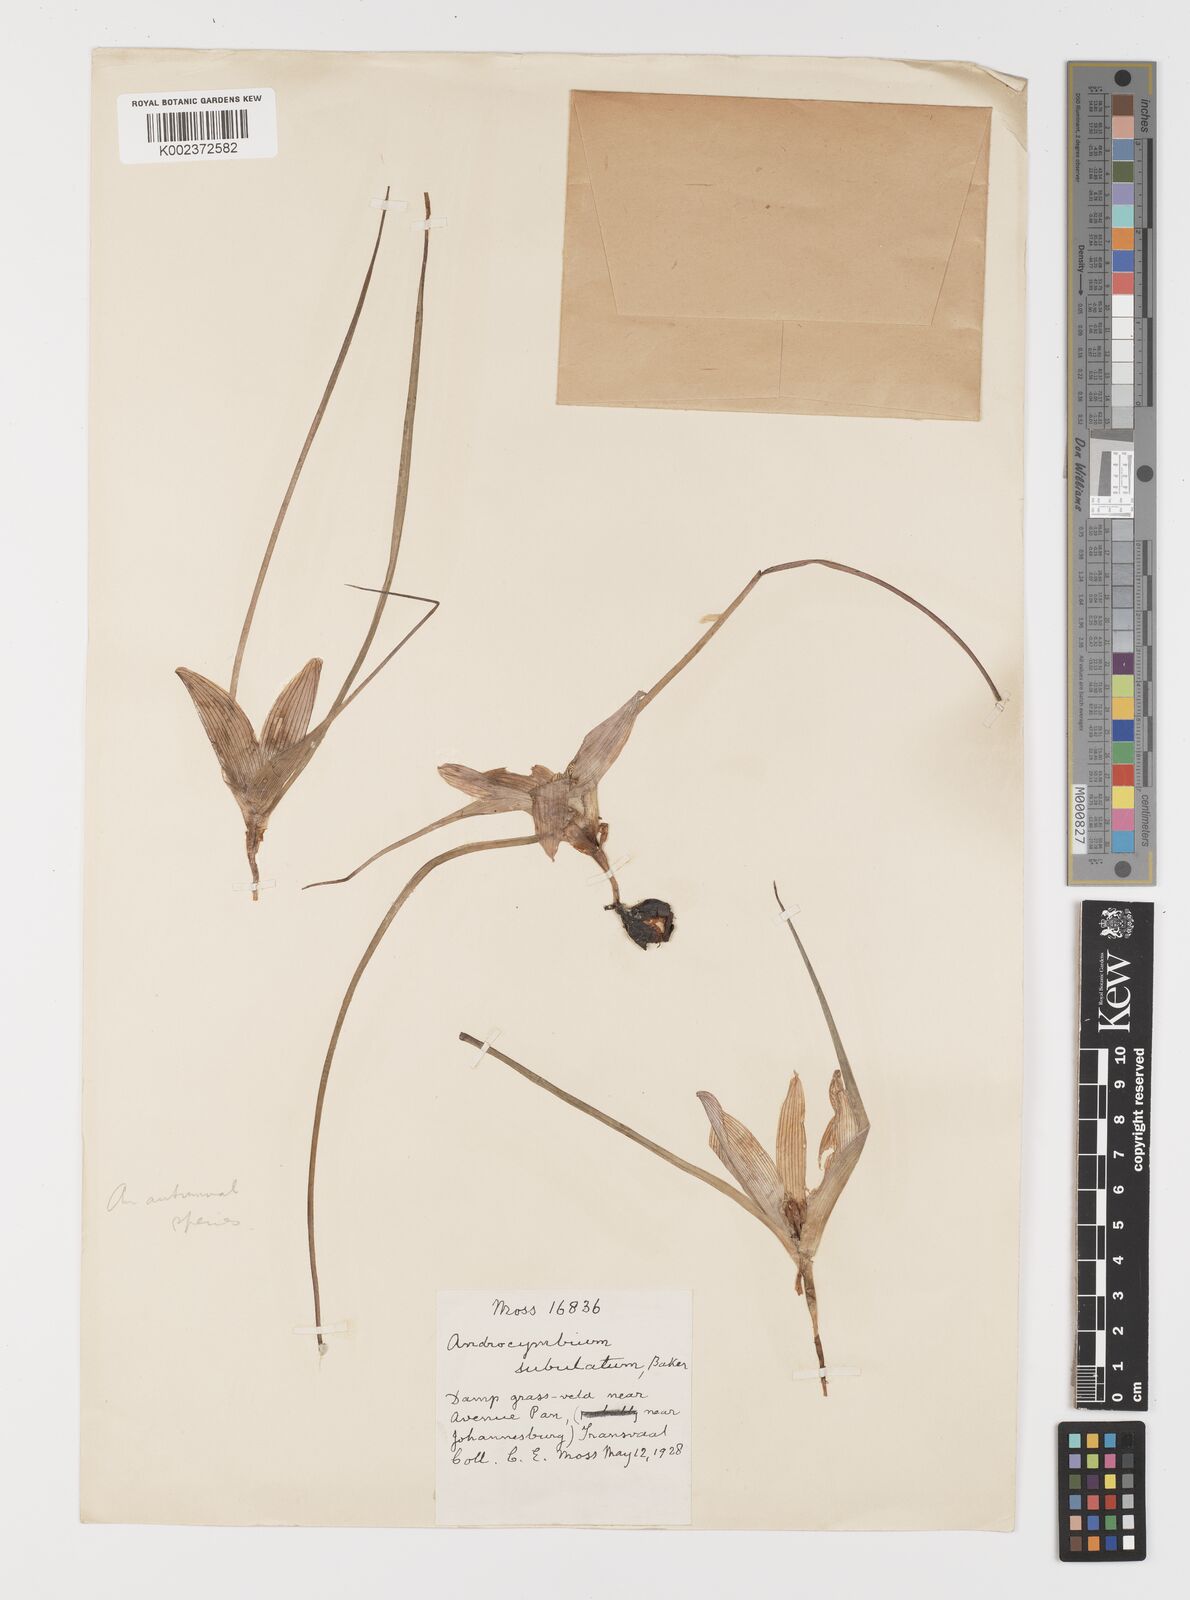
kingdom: Plantae
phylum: Tracheophyta
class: Liliopsida
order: Liliales
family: Colchicaceae
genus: Colchicum
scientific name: Colchicum melanthioides
